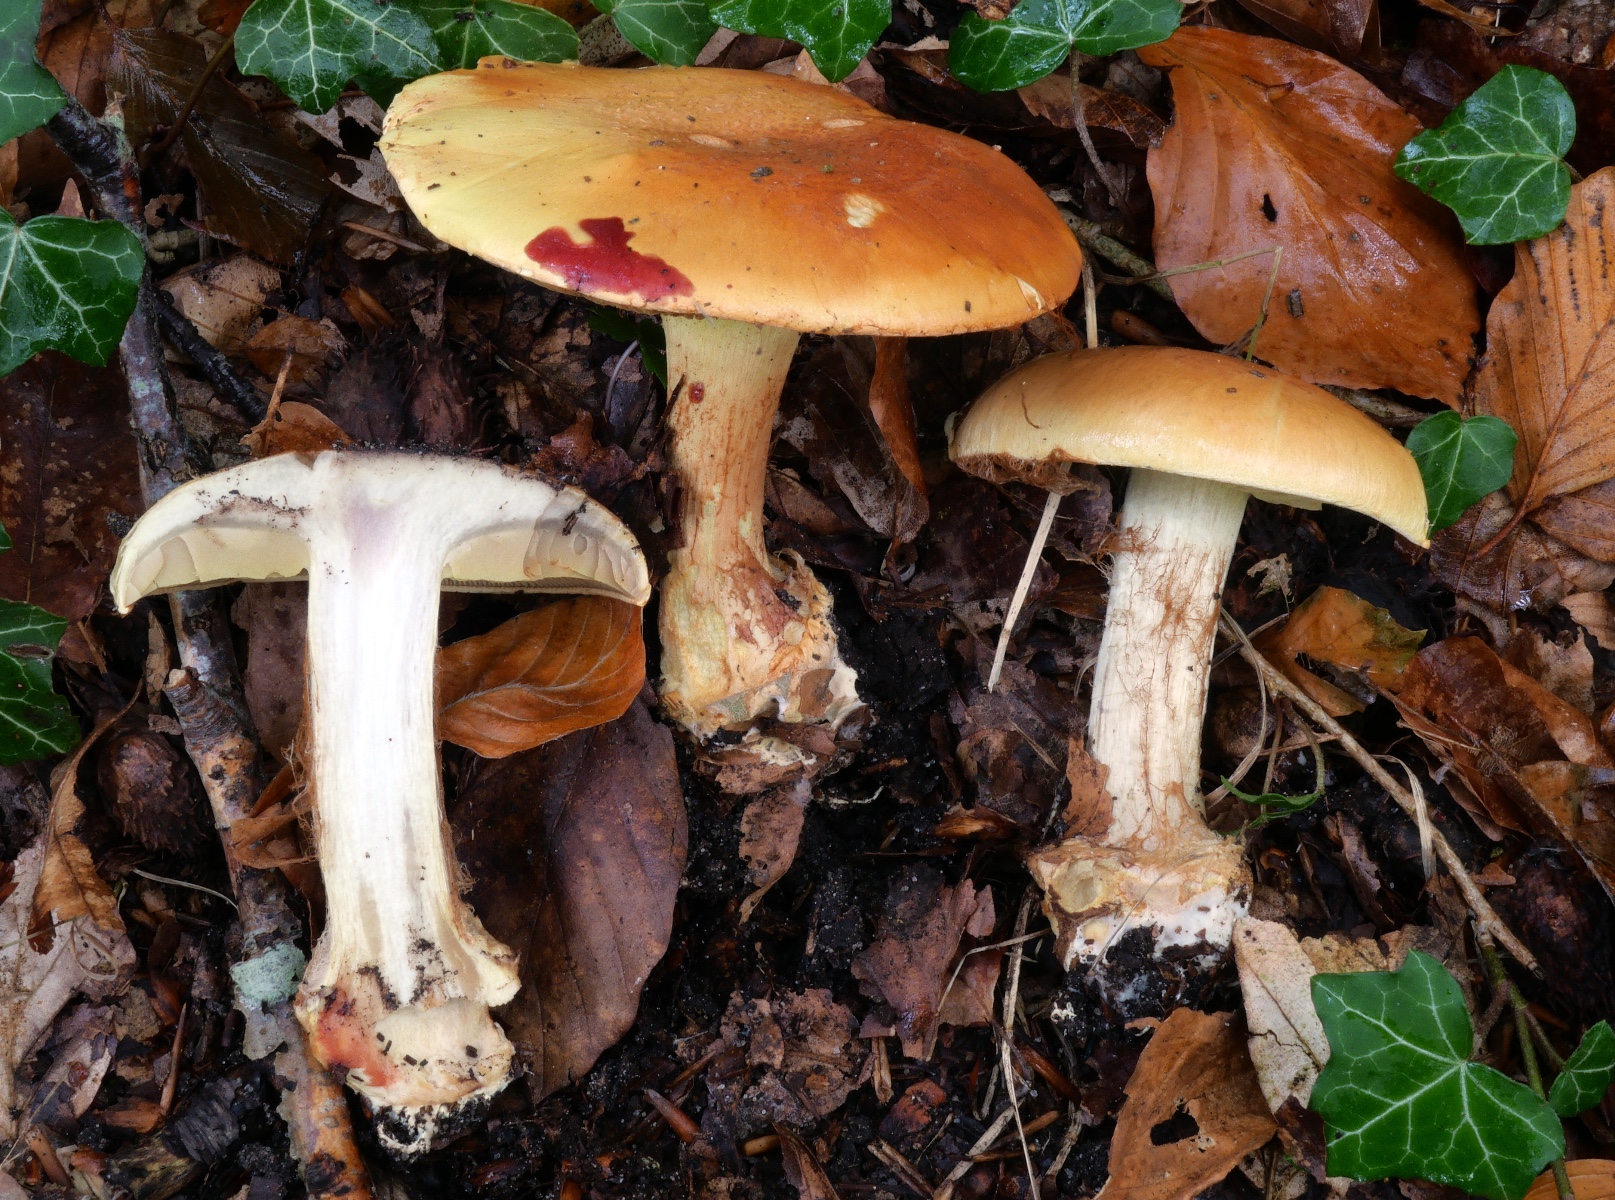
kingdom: Fungi
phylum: Basidiomycota
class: Agaricomycetes
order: Agaricales
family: Cortinariaceae
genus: Calonarius
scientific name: Calonarius elegantissimus
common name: orangegylden slørhat
